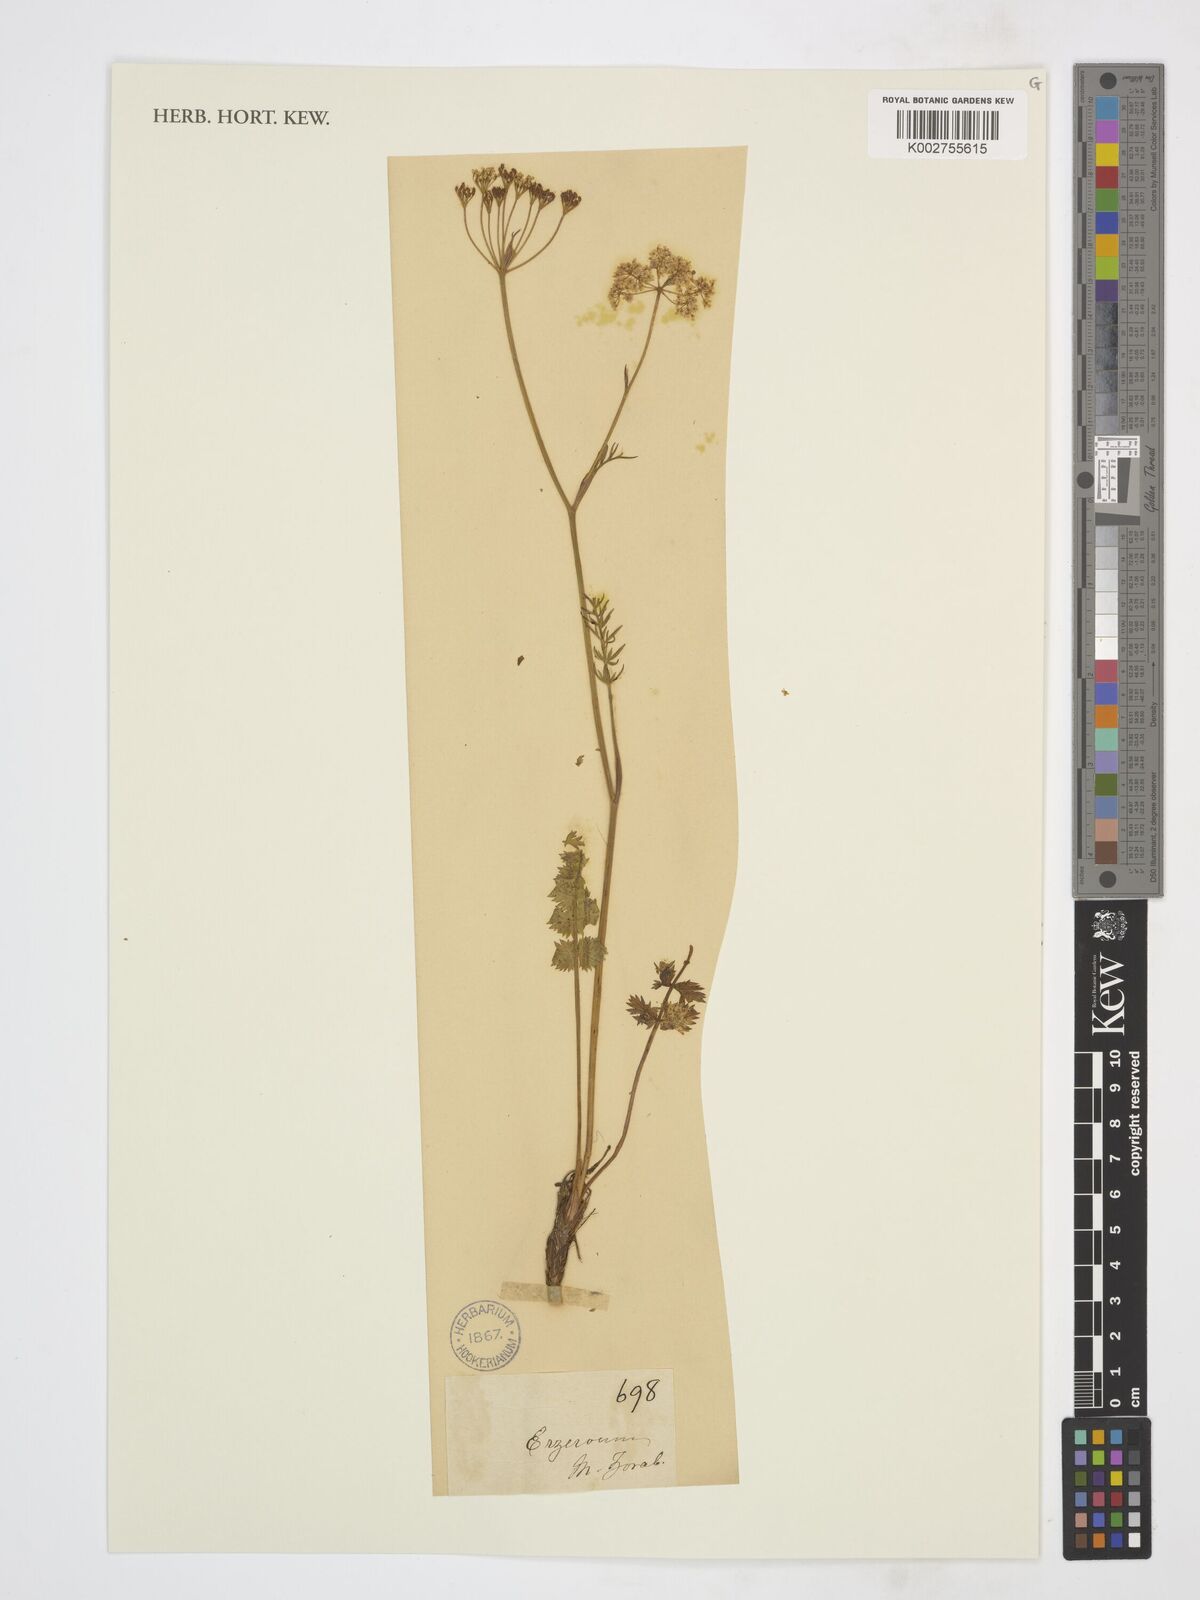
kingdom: Plantae
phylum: Tracheophyta
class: Magnoliopsida
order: Apiales
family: Apiaceae
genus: Pimpinella
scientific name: Pimpinella
